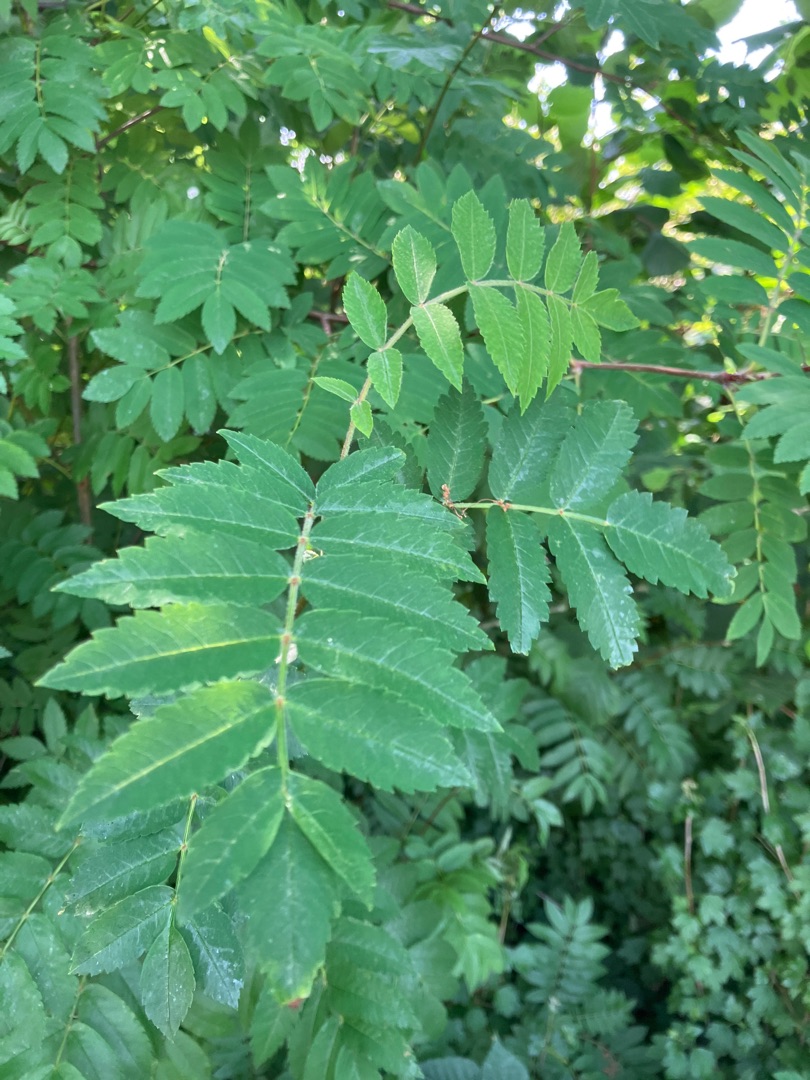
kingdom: Plantae
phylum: Tracheophyta
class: Magnoliopsida
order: Rosales
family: Rosaceae
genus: Sorbus
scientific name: Sorbus aucuparia
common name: Almindelig røn
